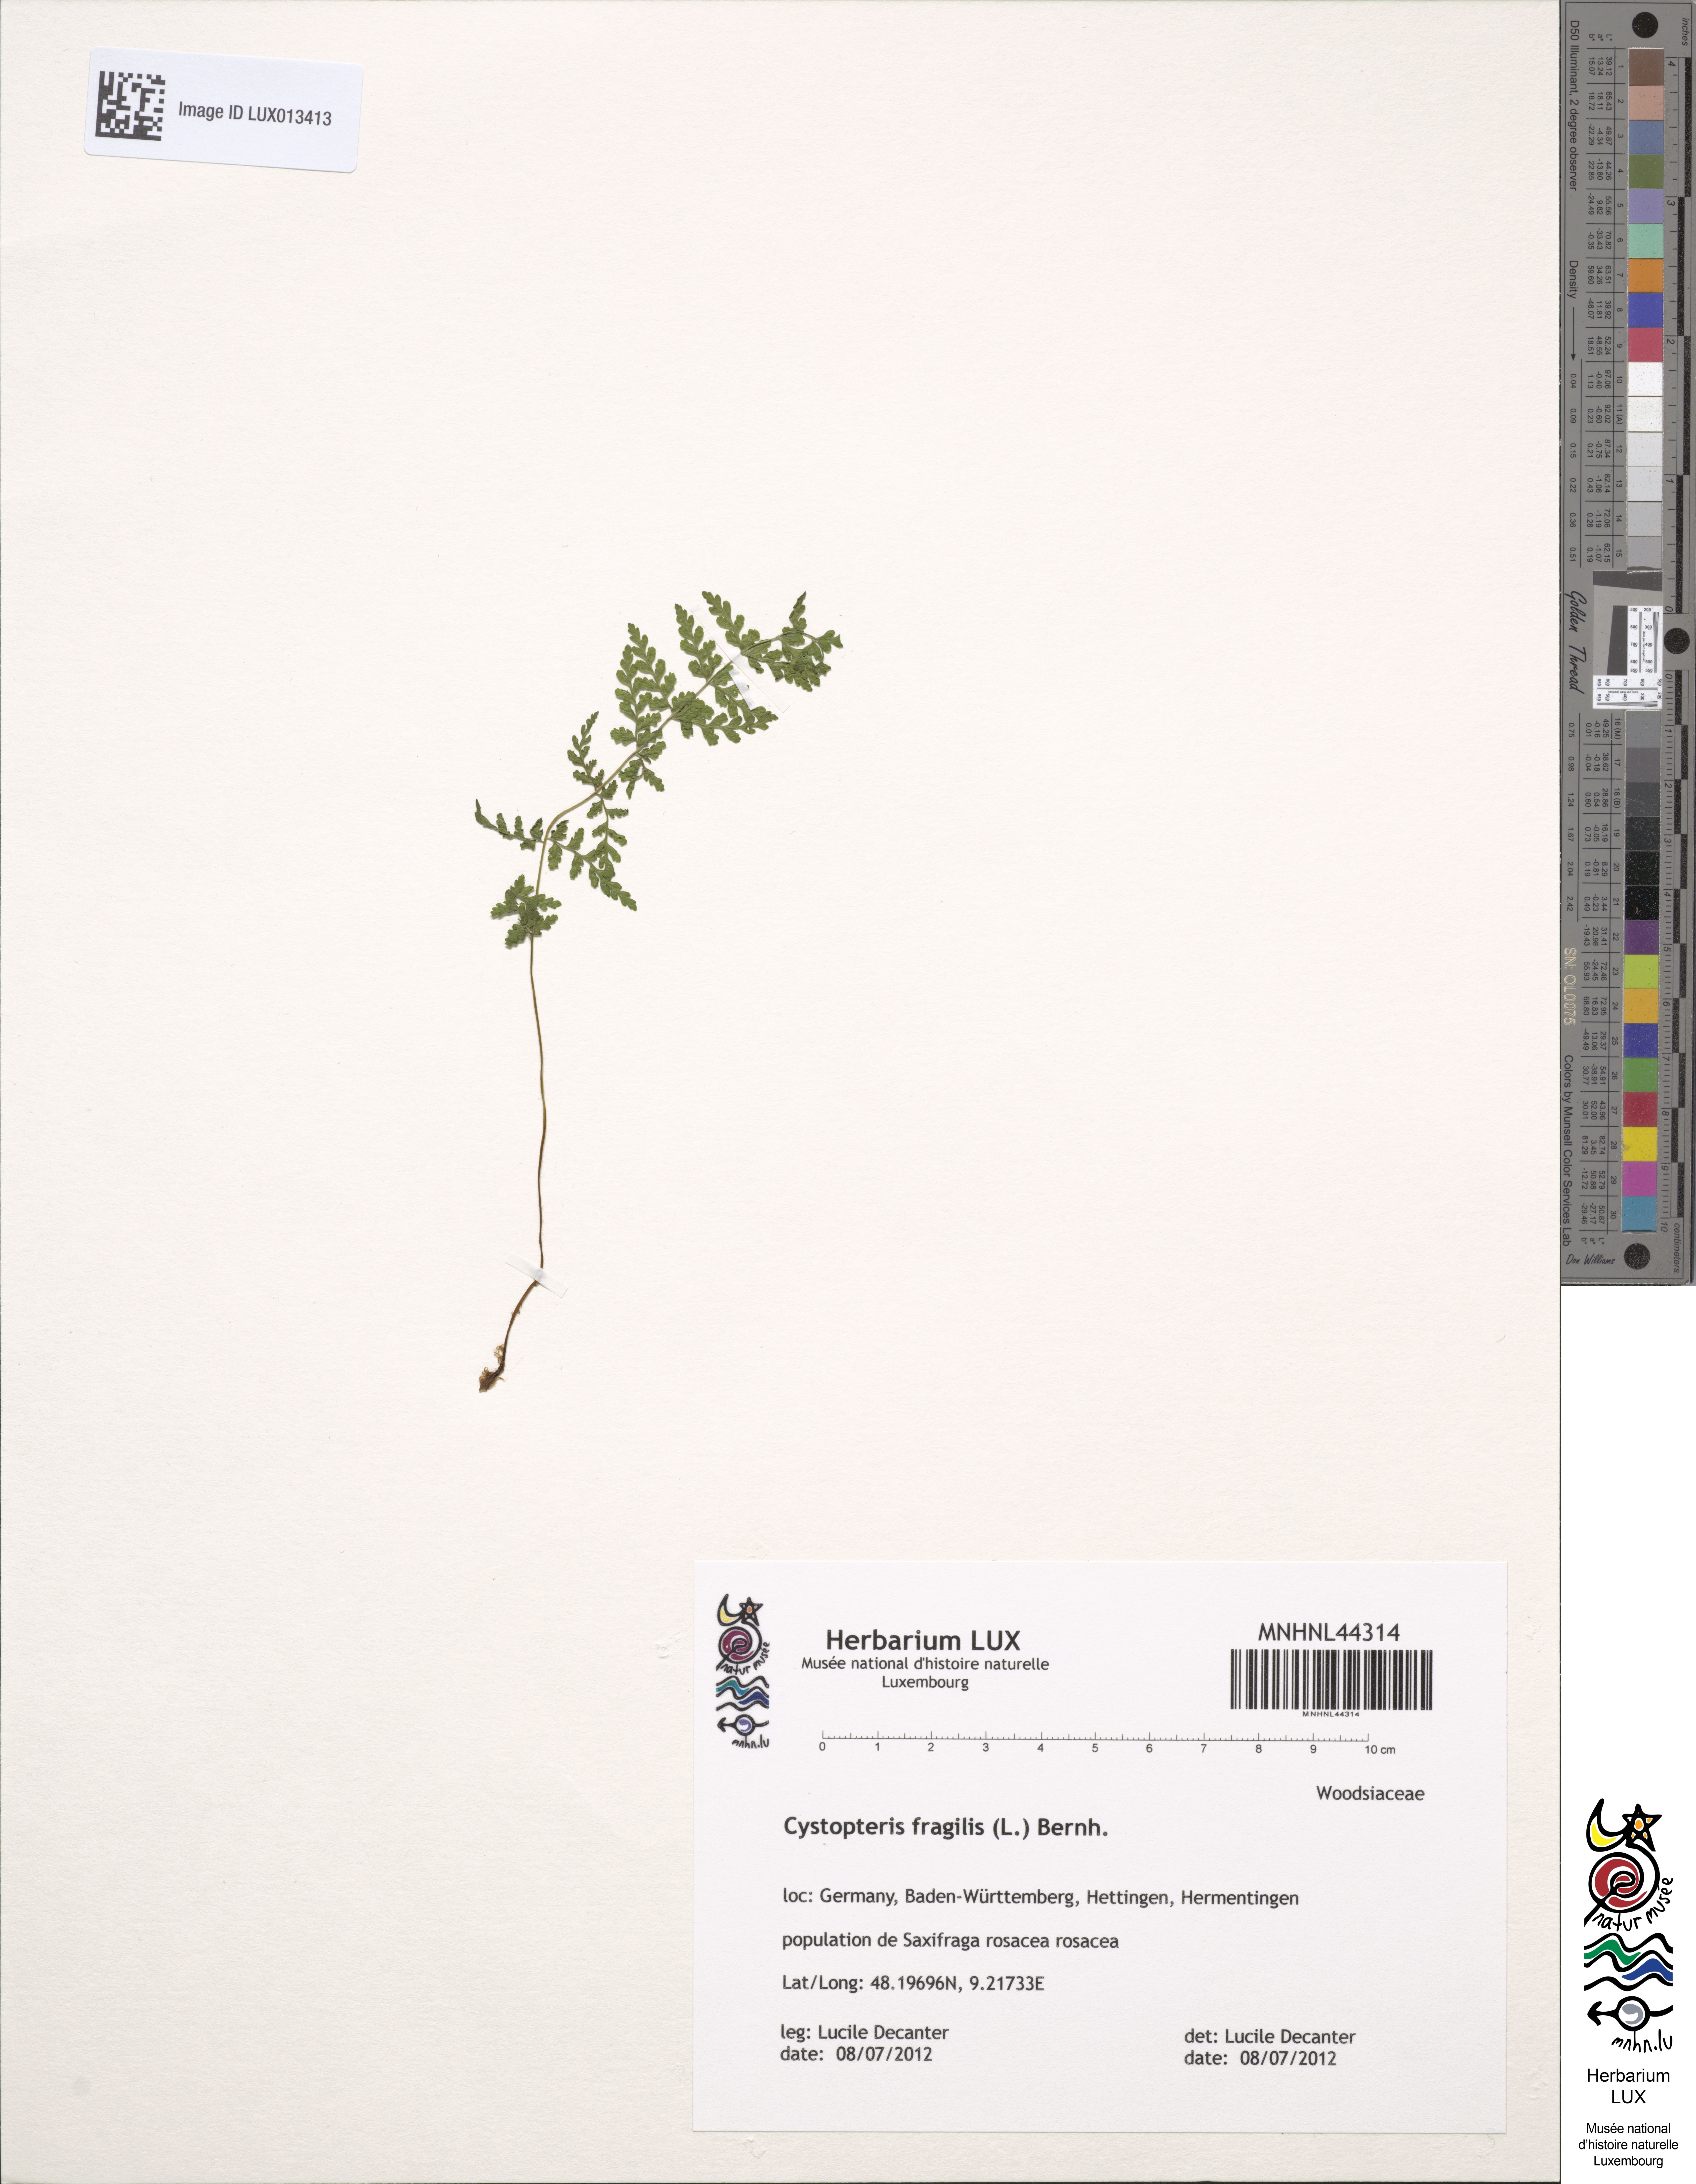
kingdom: Plantae
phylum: Tracheophyta
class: Polypodiopsida
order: Polypodiales
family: Cystopteridaceae
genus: Cystopteris
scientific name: Cystopteris fragilis
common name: Brittle bladder fern
